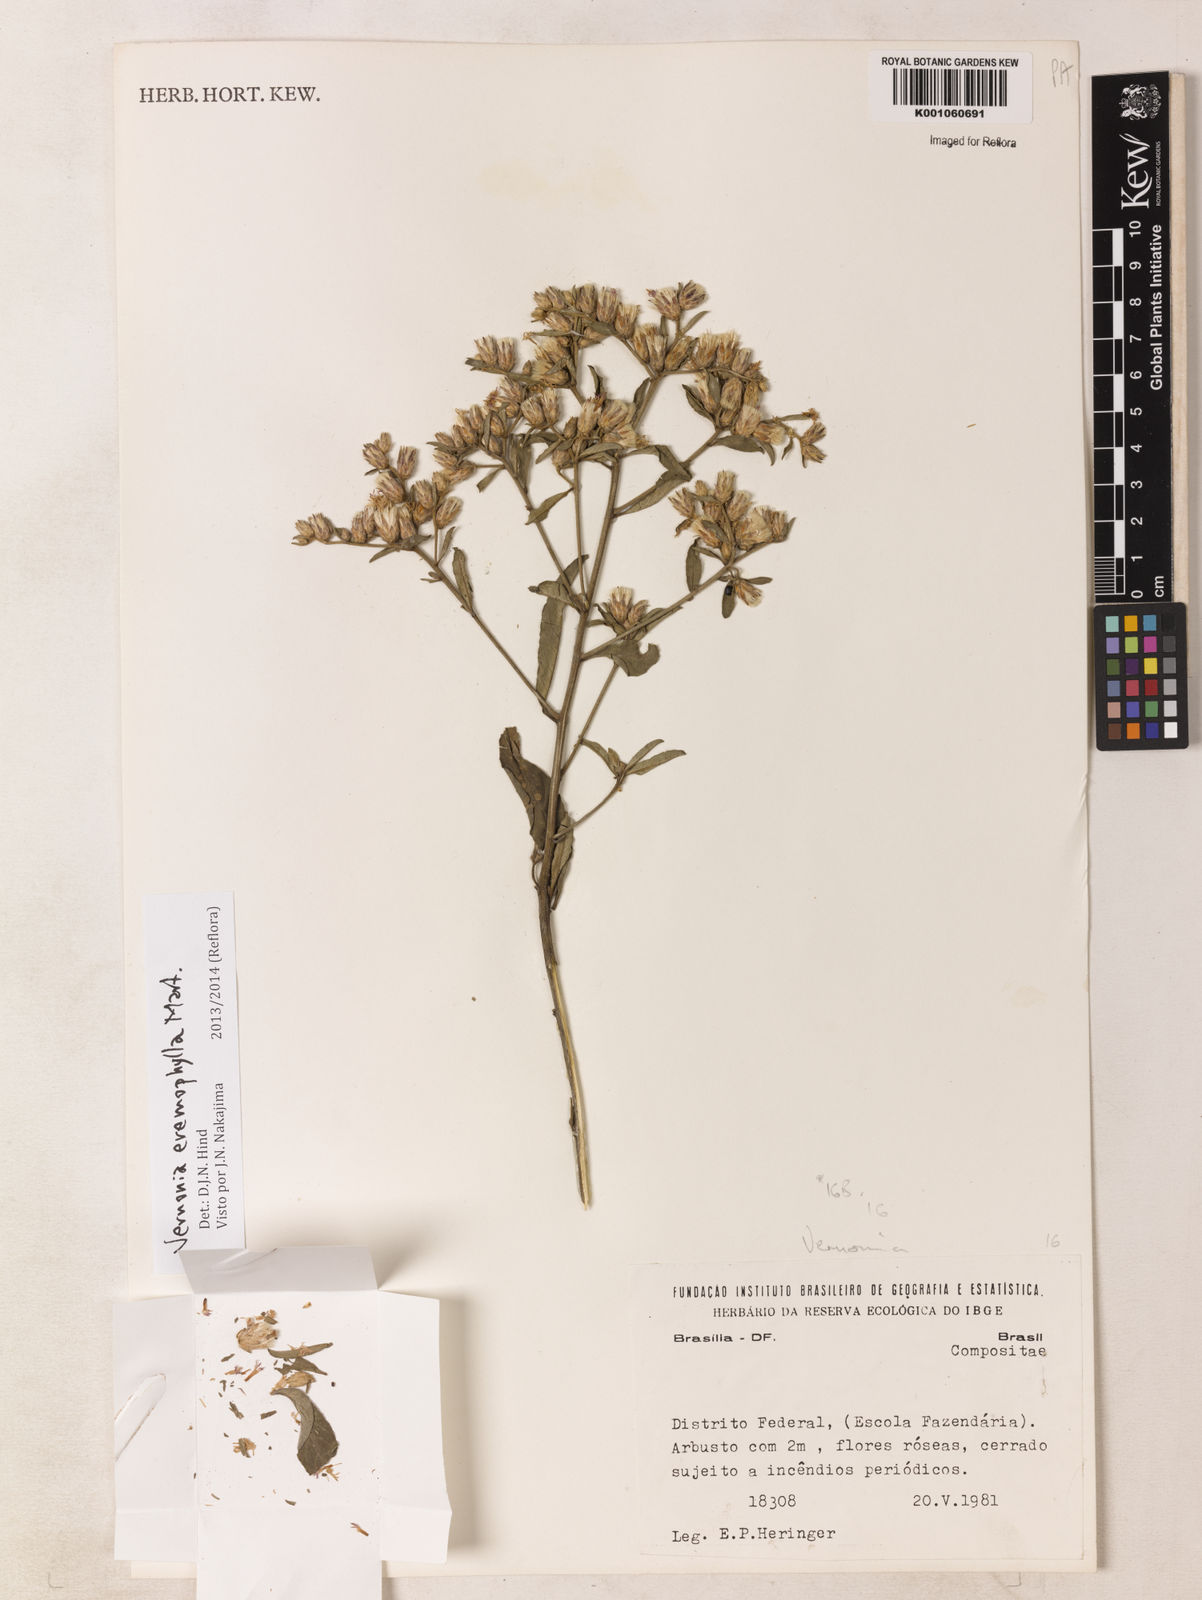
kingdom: Plantae
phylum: Tracheophyta
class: Magnoliopsida
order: Asterales
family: Asteraceae
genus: Lepidaploa
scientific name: Lepidaploa rufogrisea
